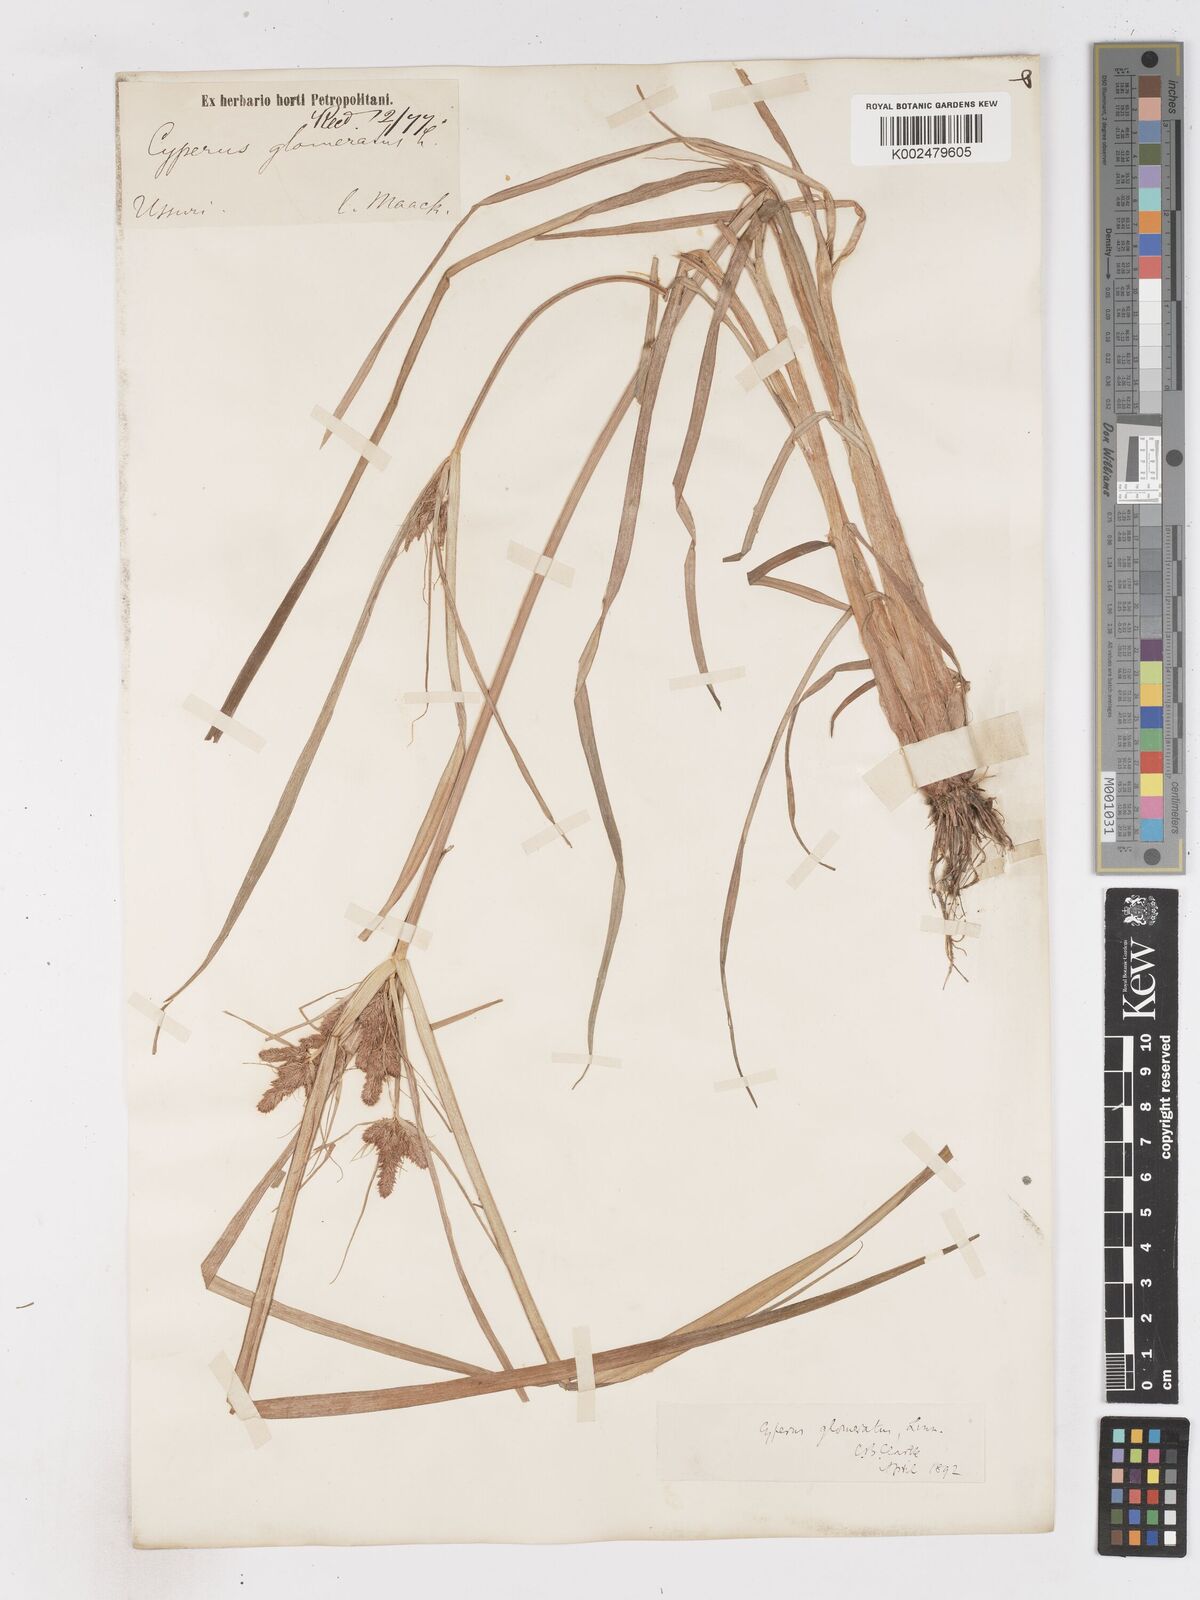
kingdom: Plantae
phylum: Tracheophyta
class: Liliopsida
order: Poales
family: Cyperaceae
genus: Cyperus
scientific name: Cyperus glomeratus
